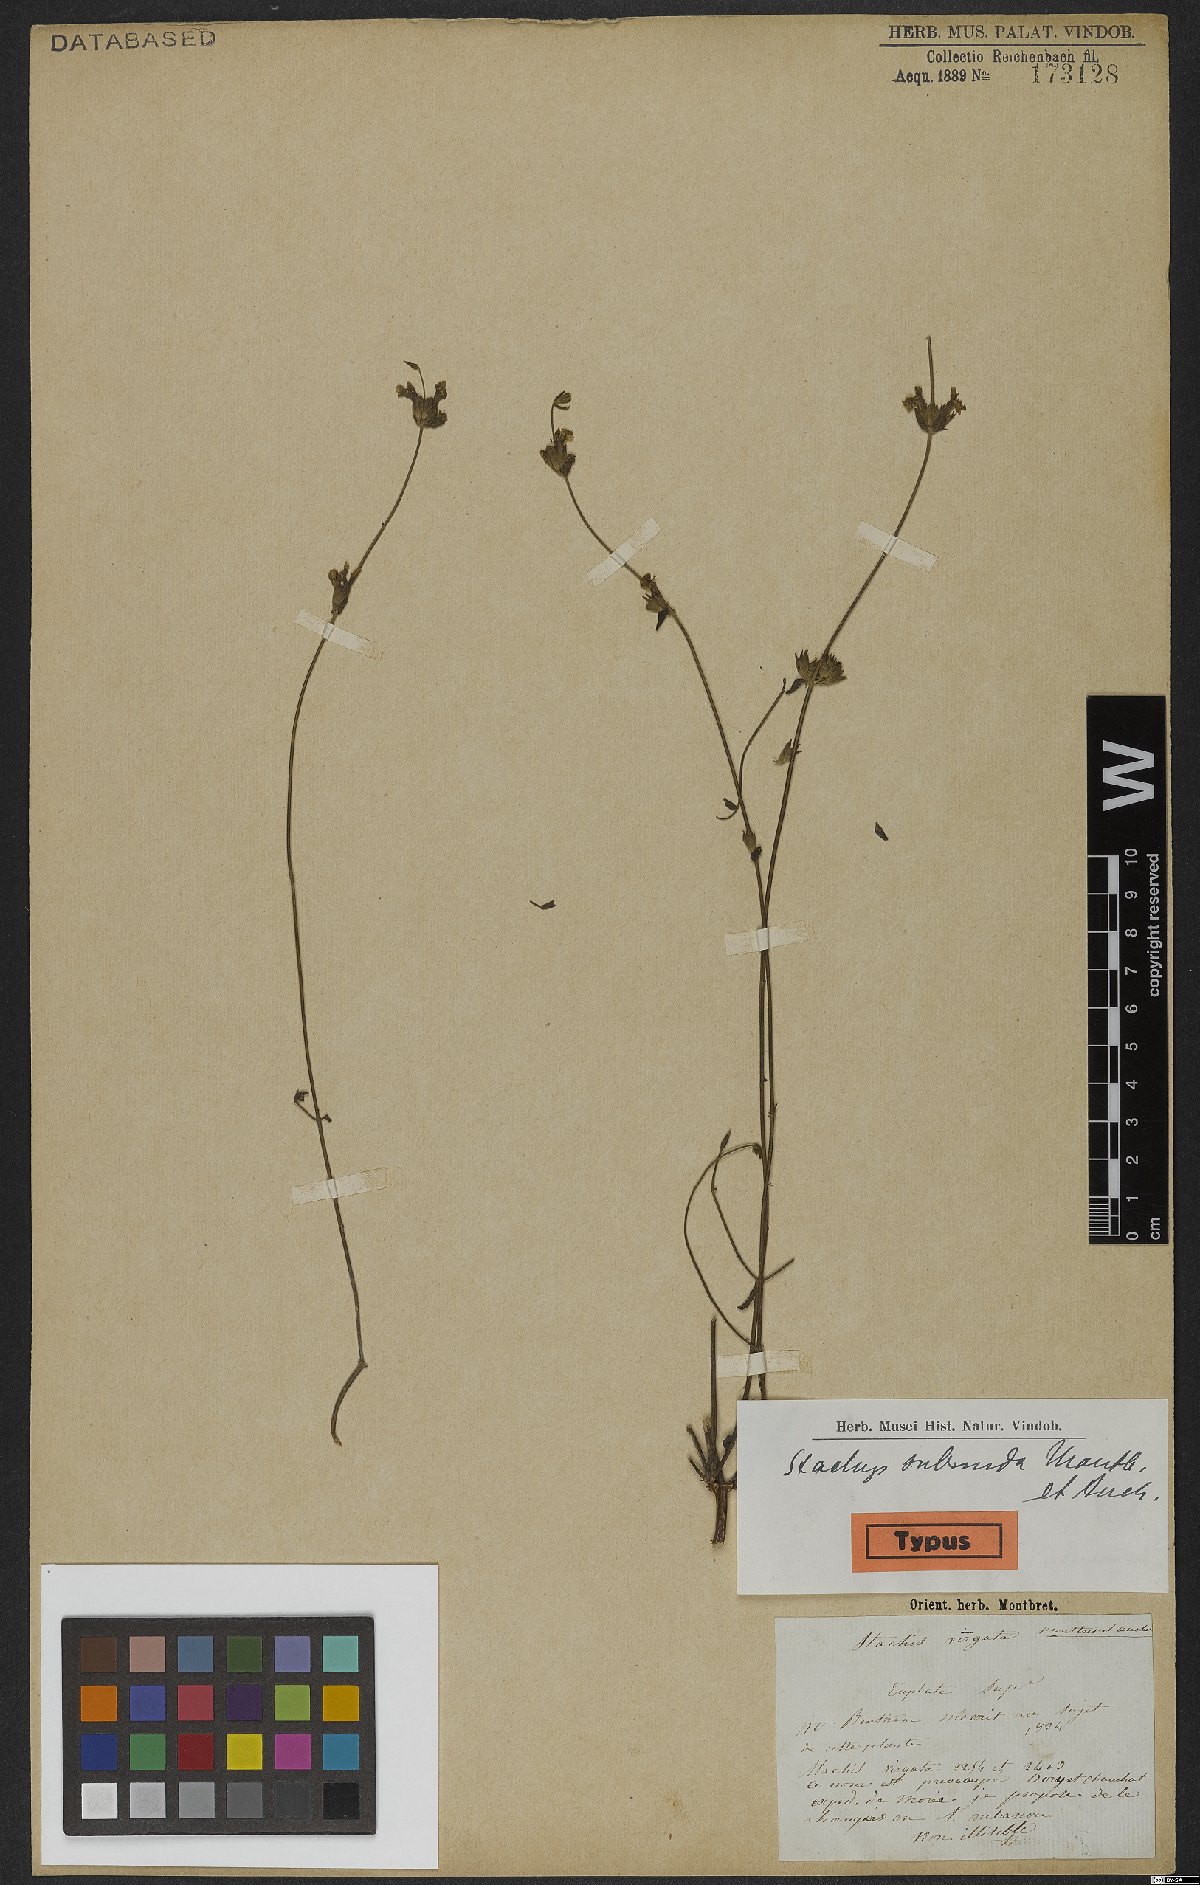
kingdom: Plantae
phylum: Tracheophyta
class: Magnoliopsida
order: Lamiales
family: Lamiaceae
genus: Stachys
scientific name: Stachys subnuda
